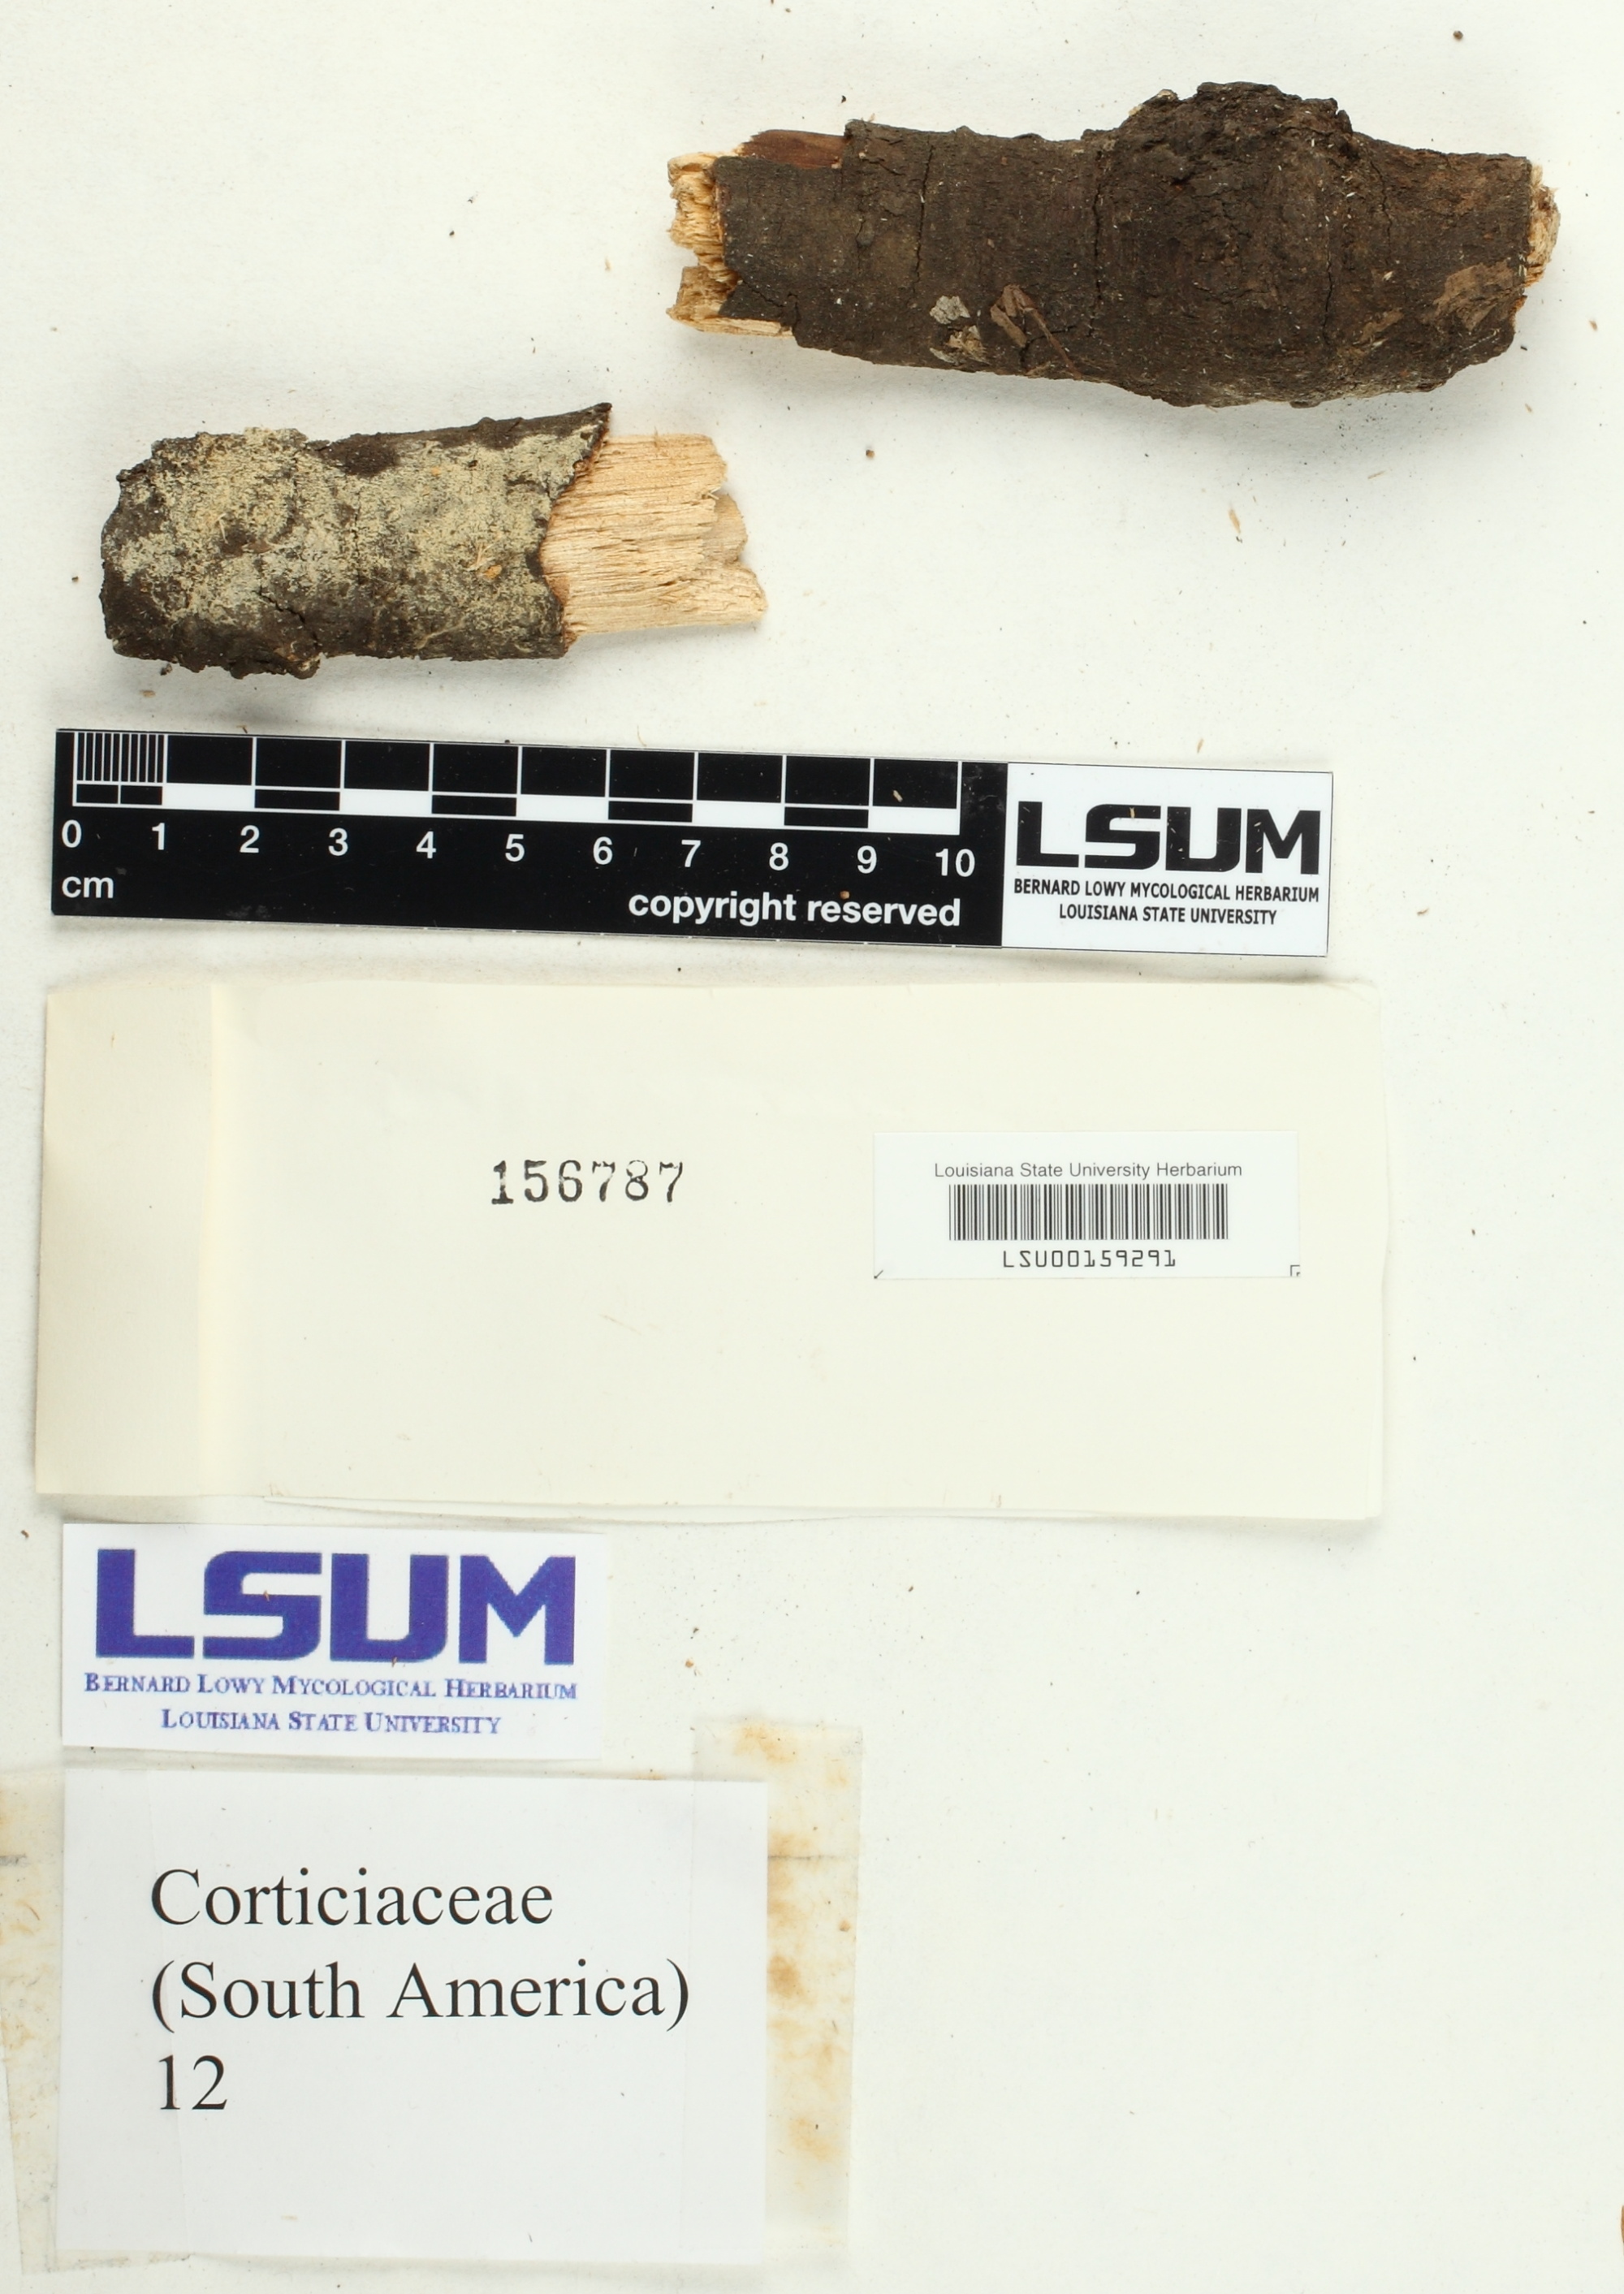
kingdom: Fungi
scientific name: Fungi
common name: Fungi
